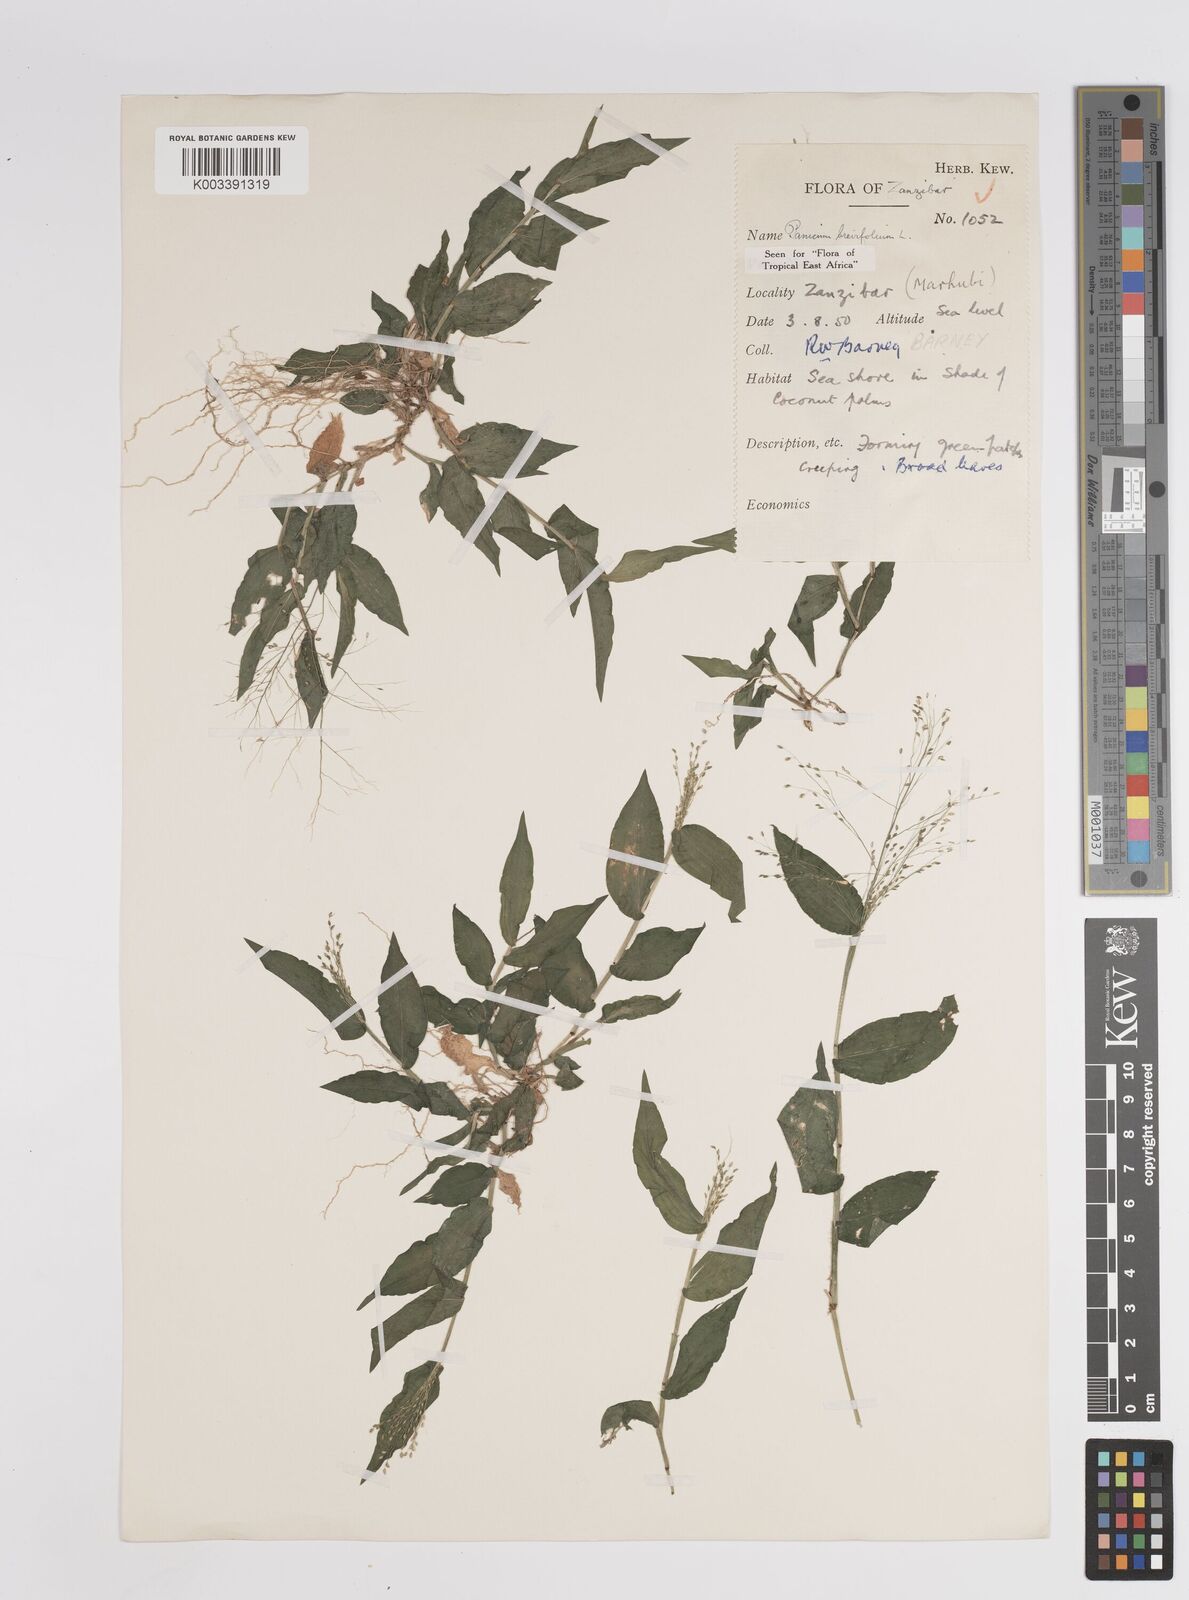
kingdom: Plantae
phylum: Tracheophyta
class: Liliopsida
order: Poales
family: Poaceae
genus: Panicum
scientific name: Panicum brevifolium
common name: Shortleaf panic grass
